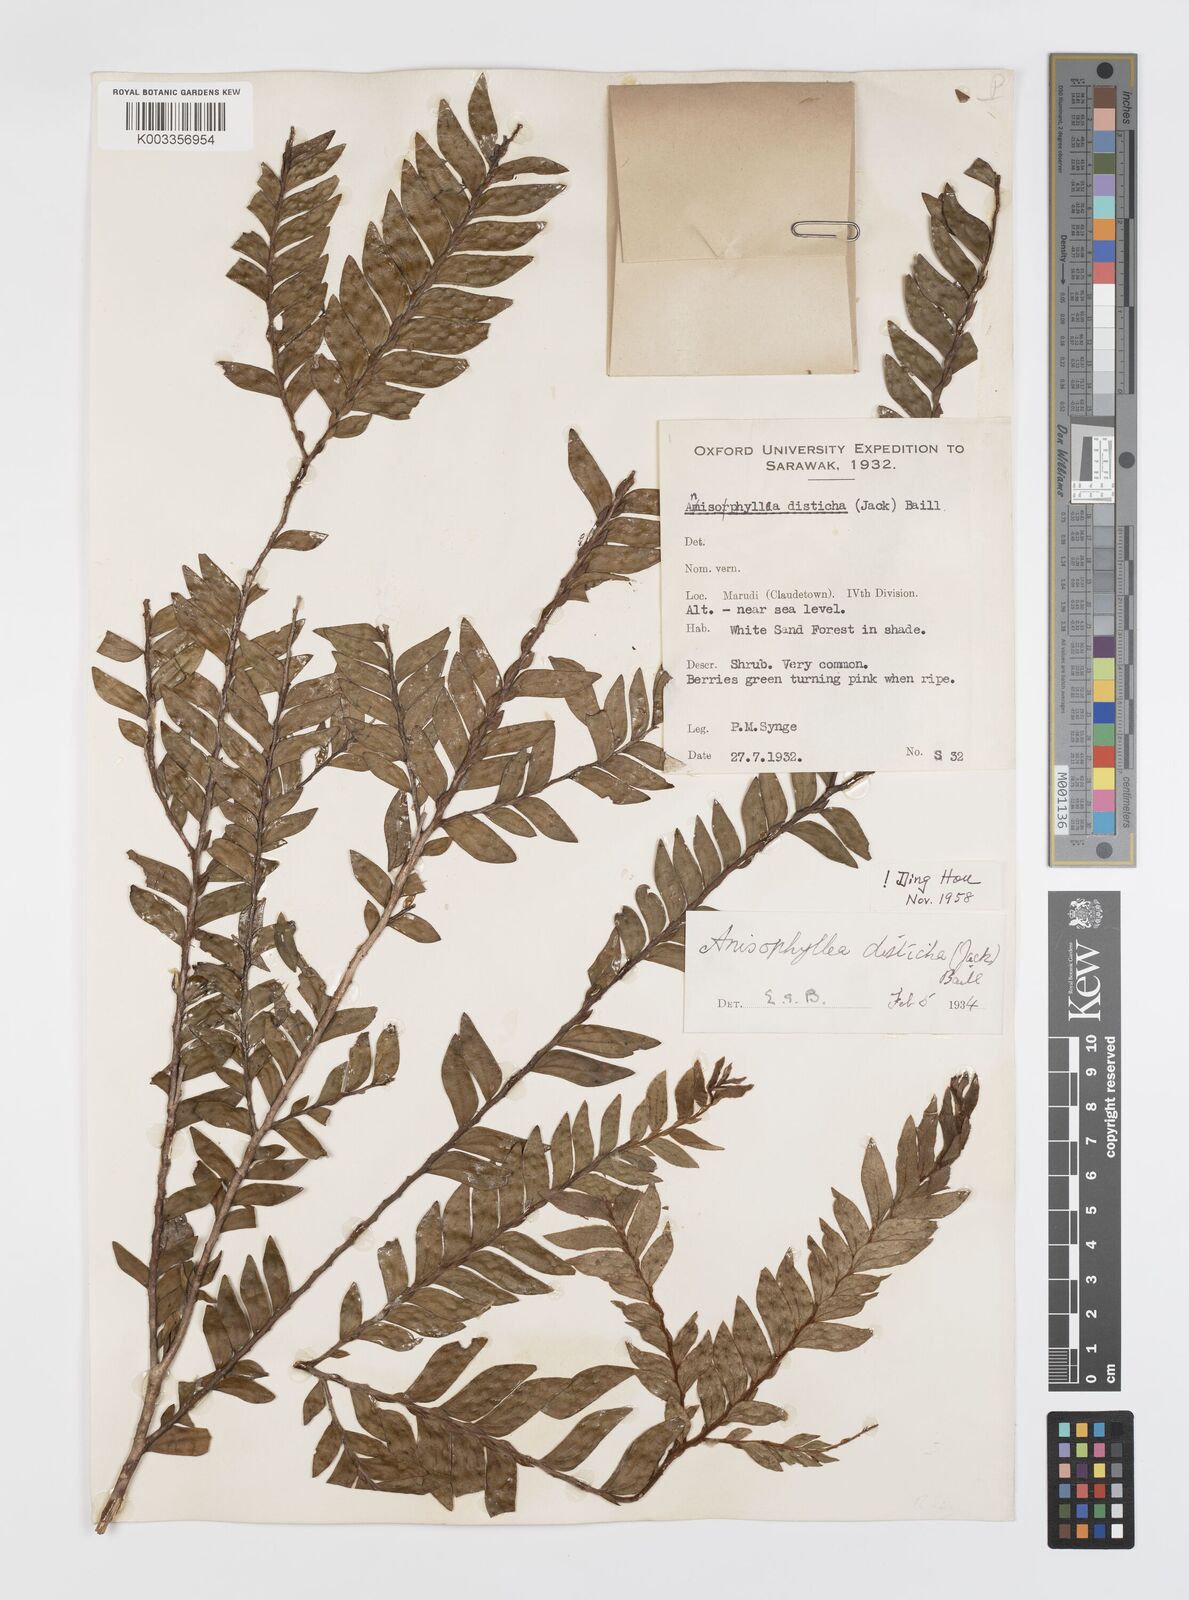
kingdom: Plantae
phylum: Tracheophyta
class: Magnoliopsida
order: Cucurbitales
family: Anisophylleaceae
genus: Anisophyllea
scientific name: Anisophyllea disticha
